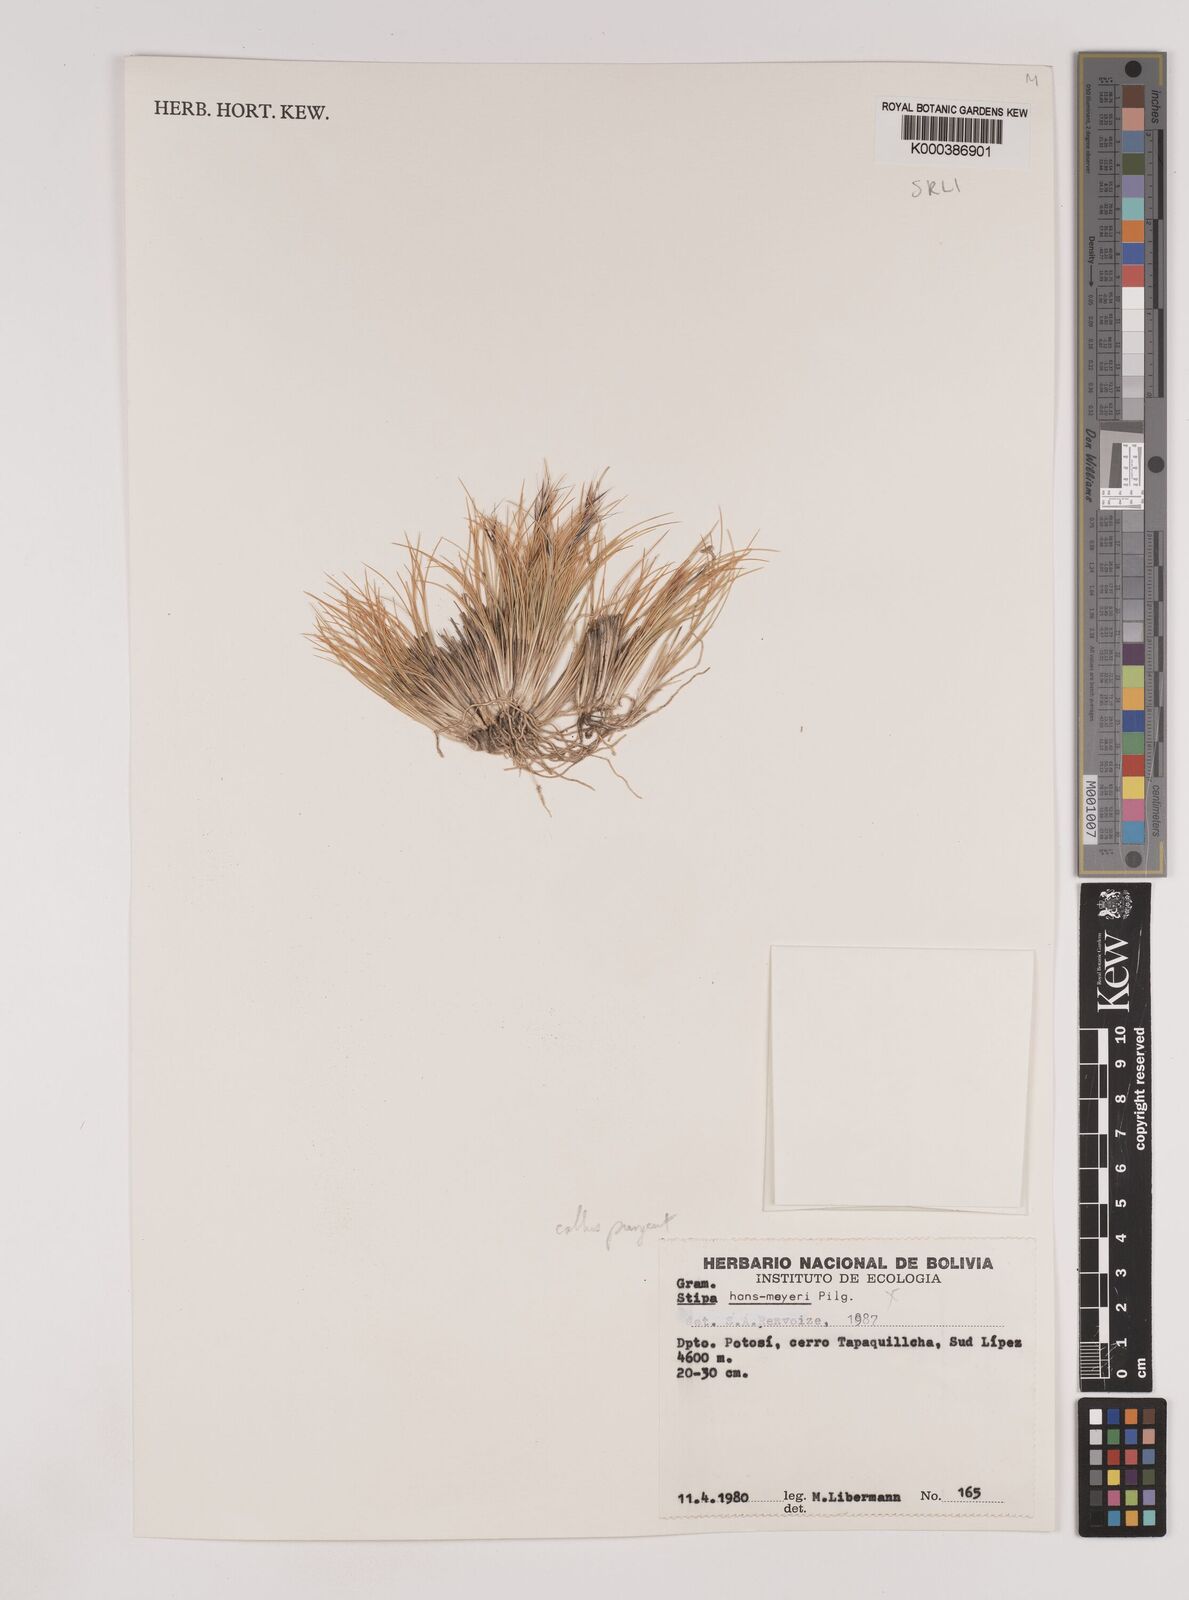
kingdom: Plantae
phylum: Tracheophyta
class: Liliopsida
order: Poales
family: Poaceae
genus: Nassella
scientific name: Nassella nardoides
